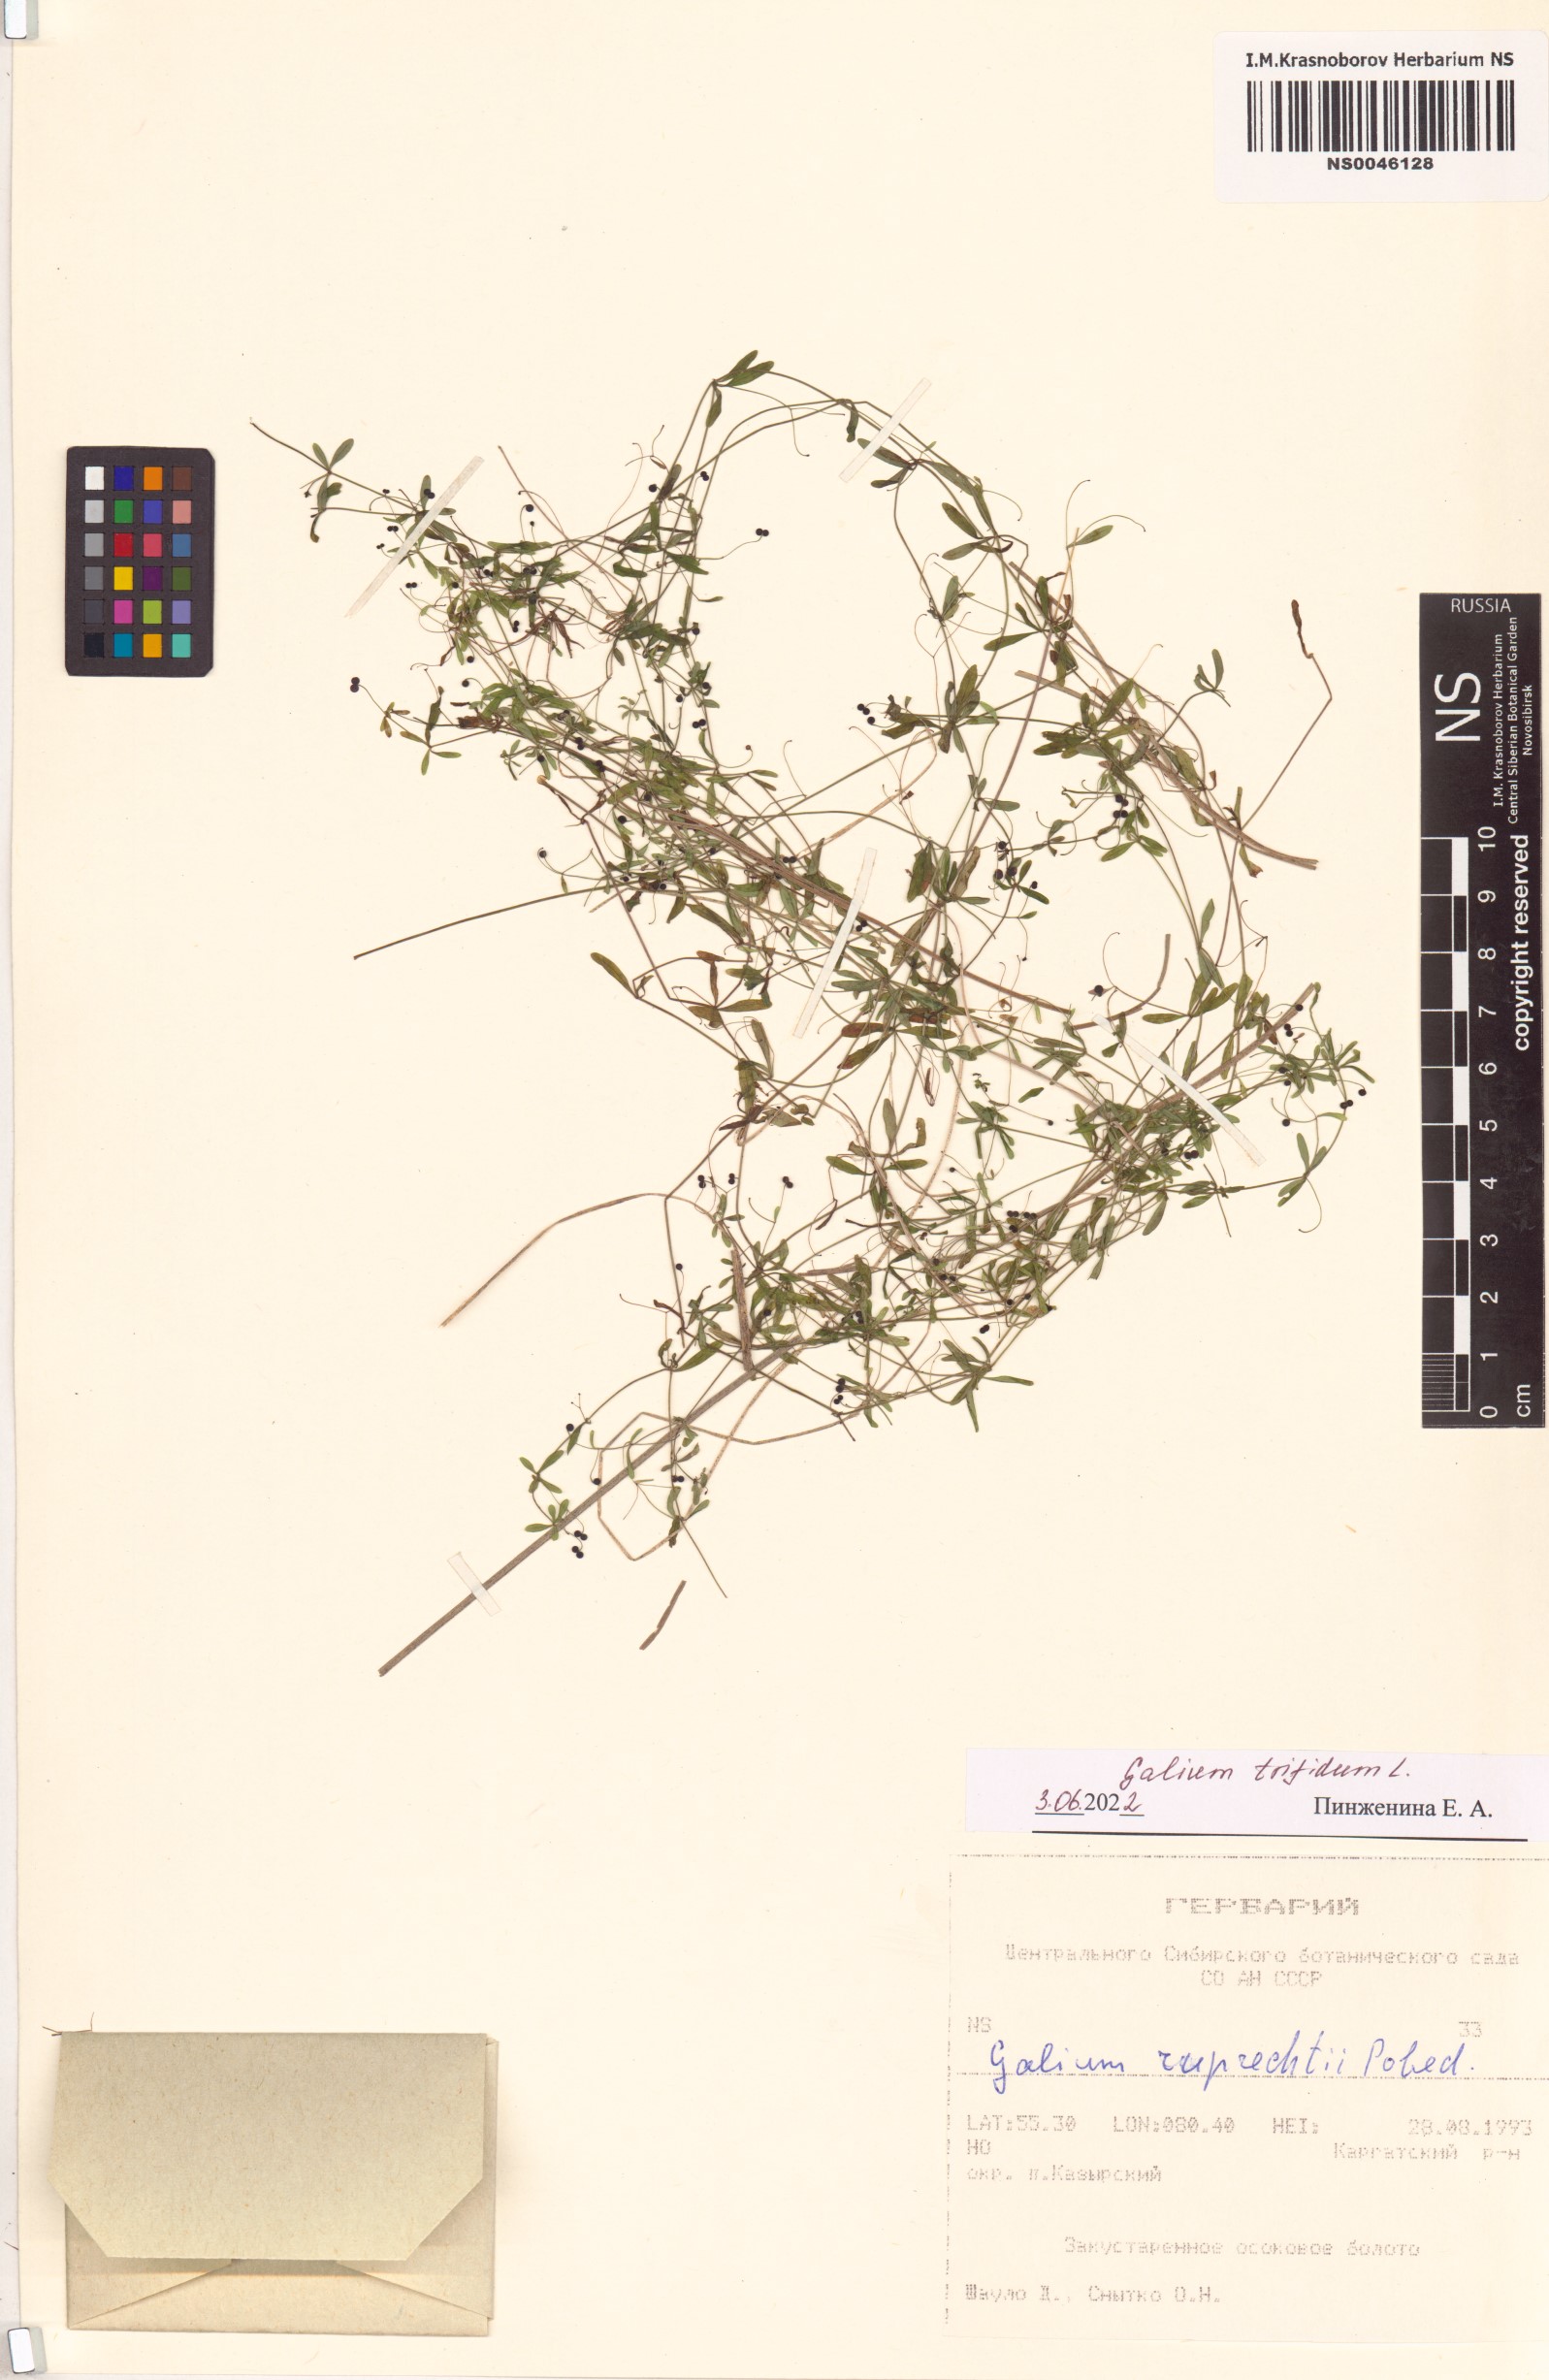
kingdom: Plantae
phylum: Tracheophyta
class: Magnoliopsida
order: Gentianales
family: Rubiaceae
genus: Galium
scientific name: Galium trifidum
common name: Small bedstraw
